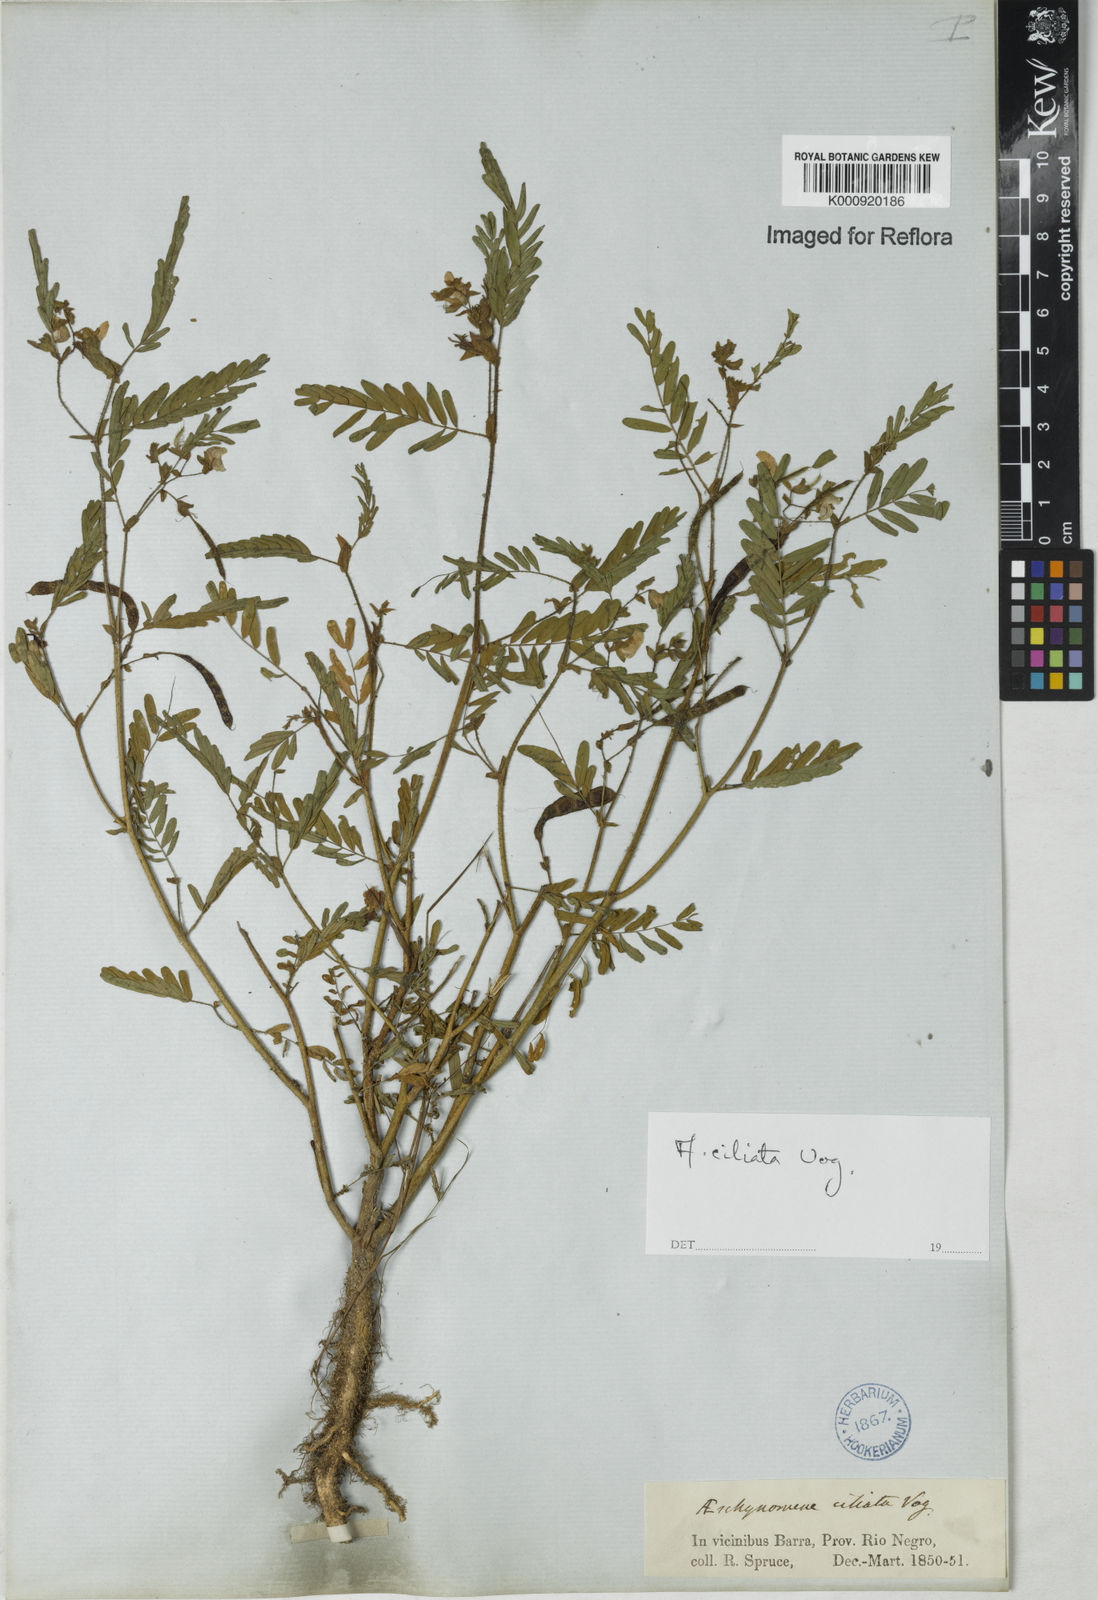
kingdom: Plantae
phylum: Tracheophyta
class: Magnoliopsida
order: Fabales
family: Fabaceae
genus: Aeschynomene
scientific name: Aeschynomene ciliata
